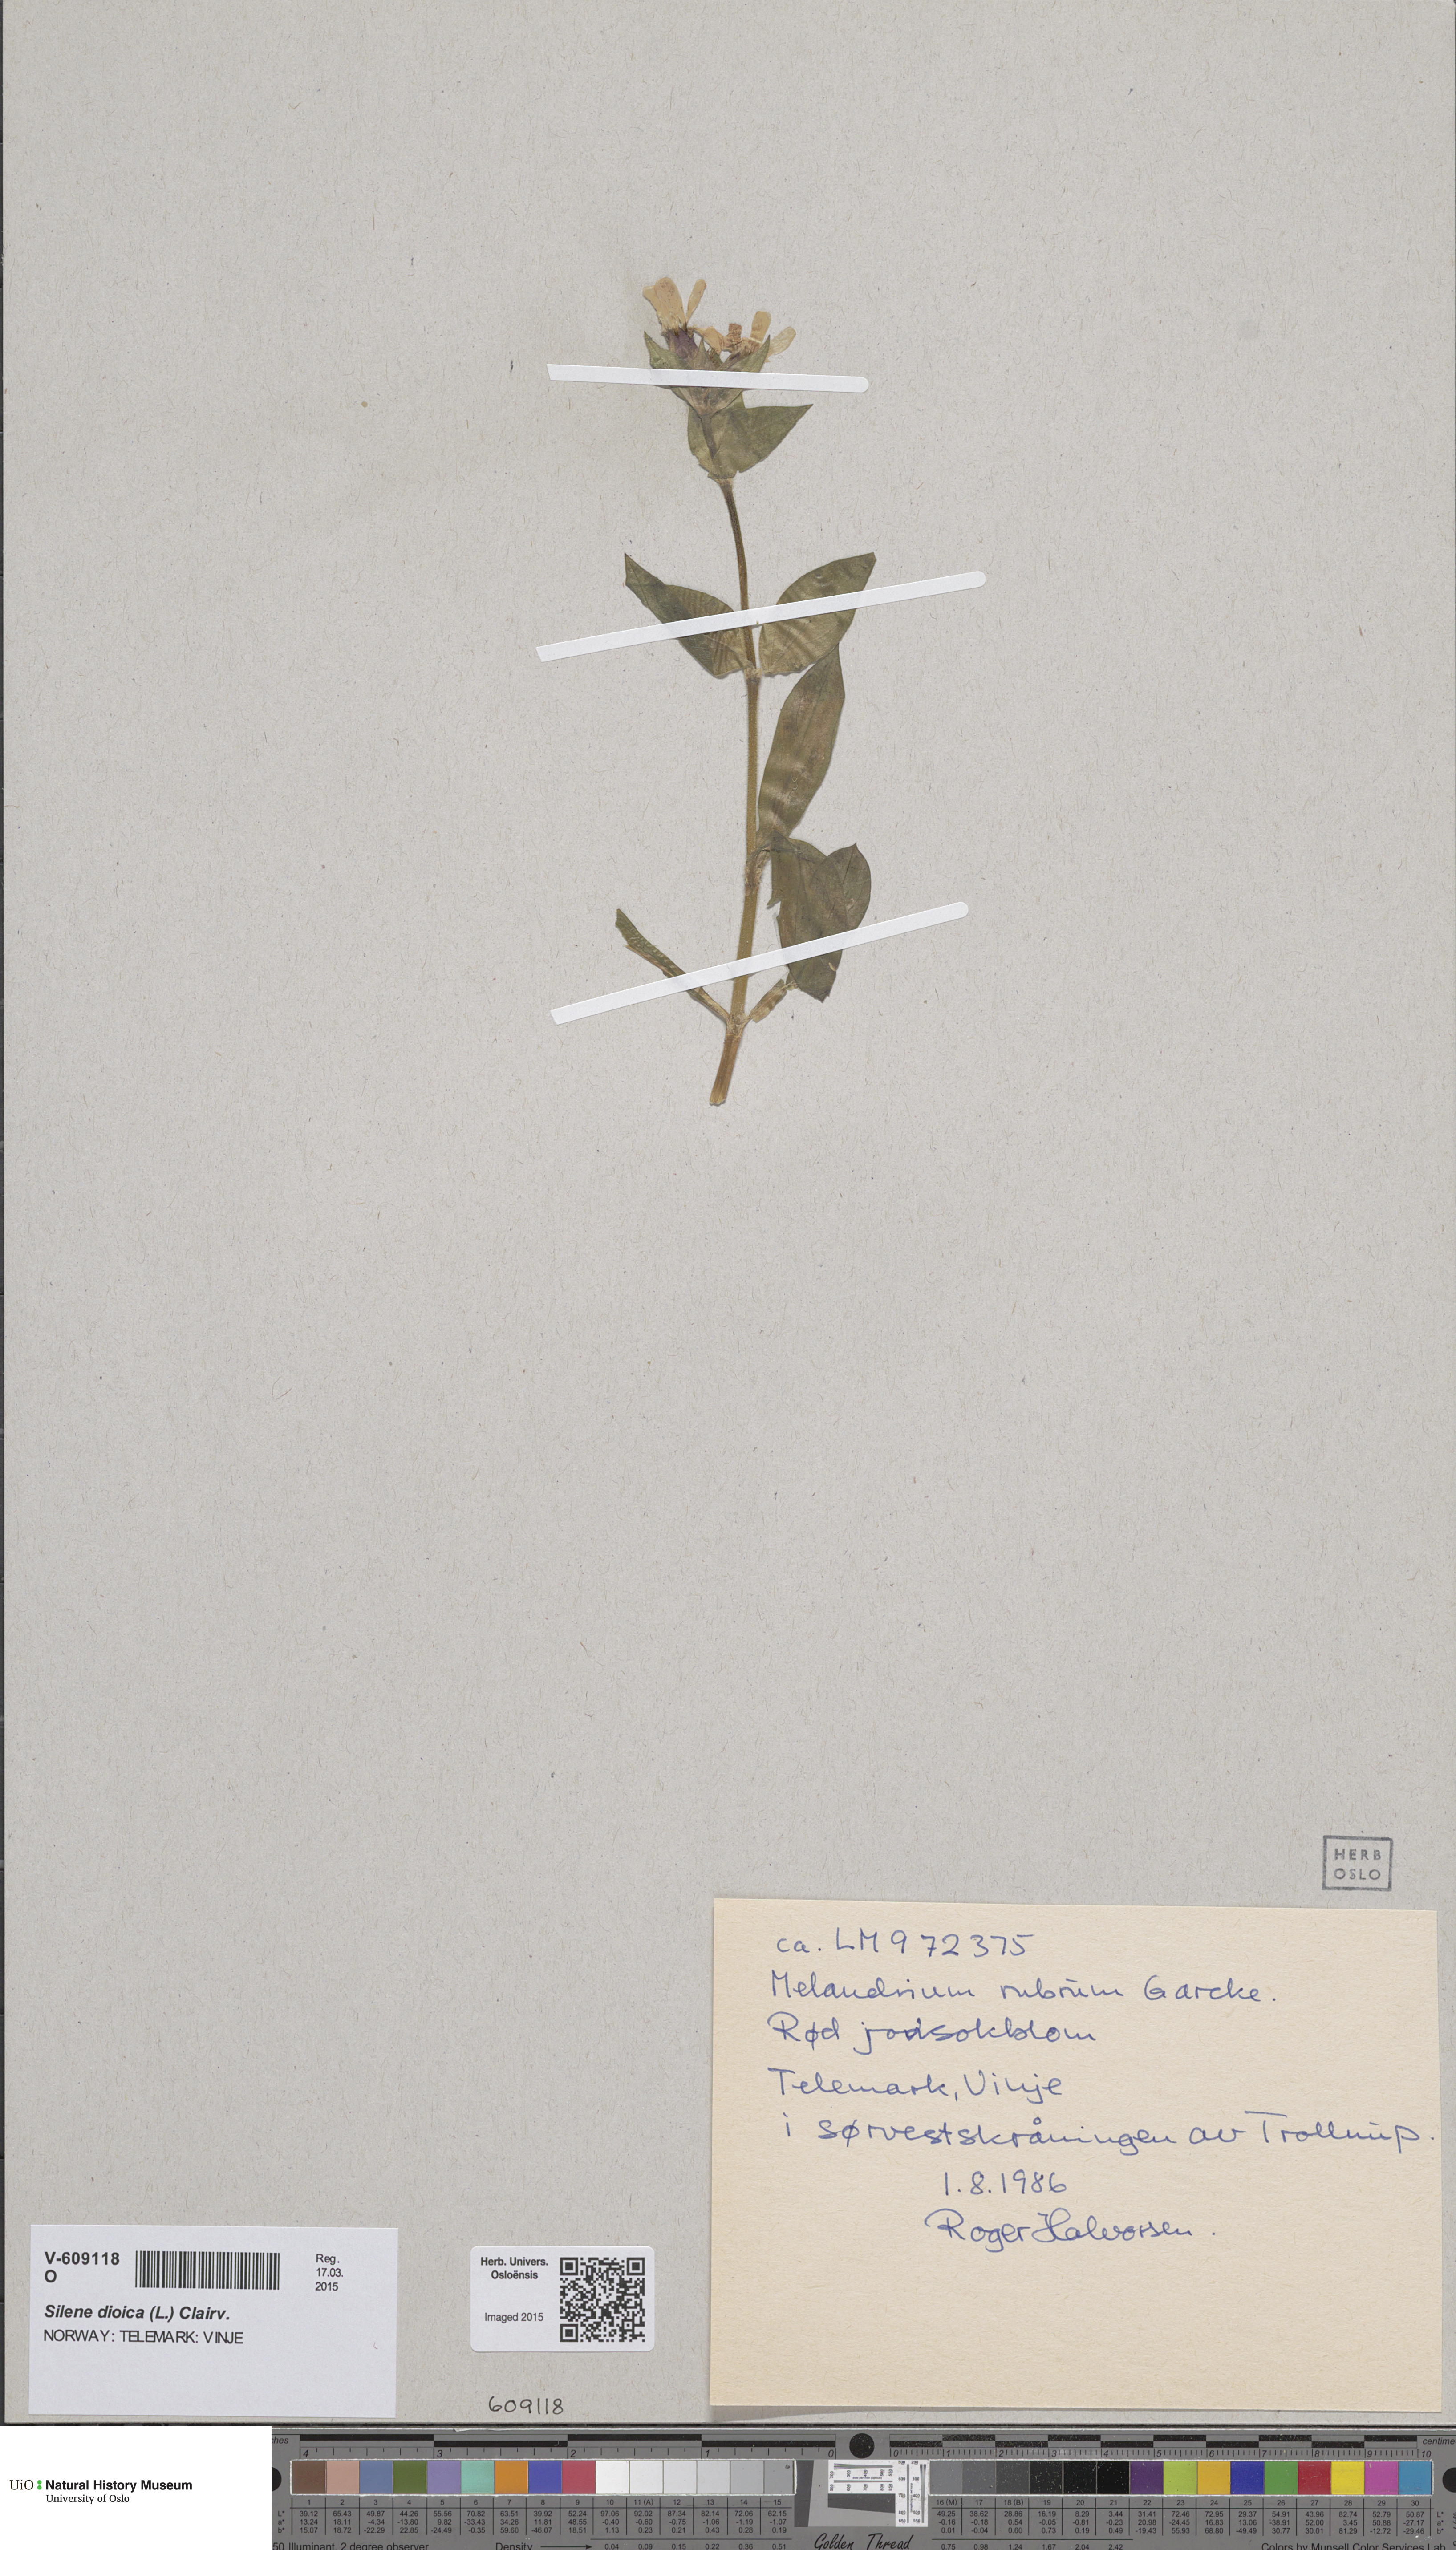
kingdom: Plantae
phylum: Tracheophyta
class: Magnoliopsida
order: Caryophyllales
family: Caryophyllaceae
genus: Silene
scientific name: Silene dioica
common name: Red campion
